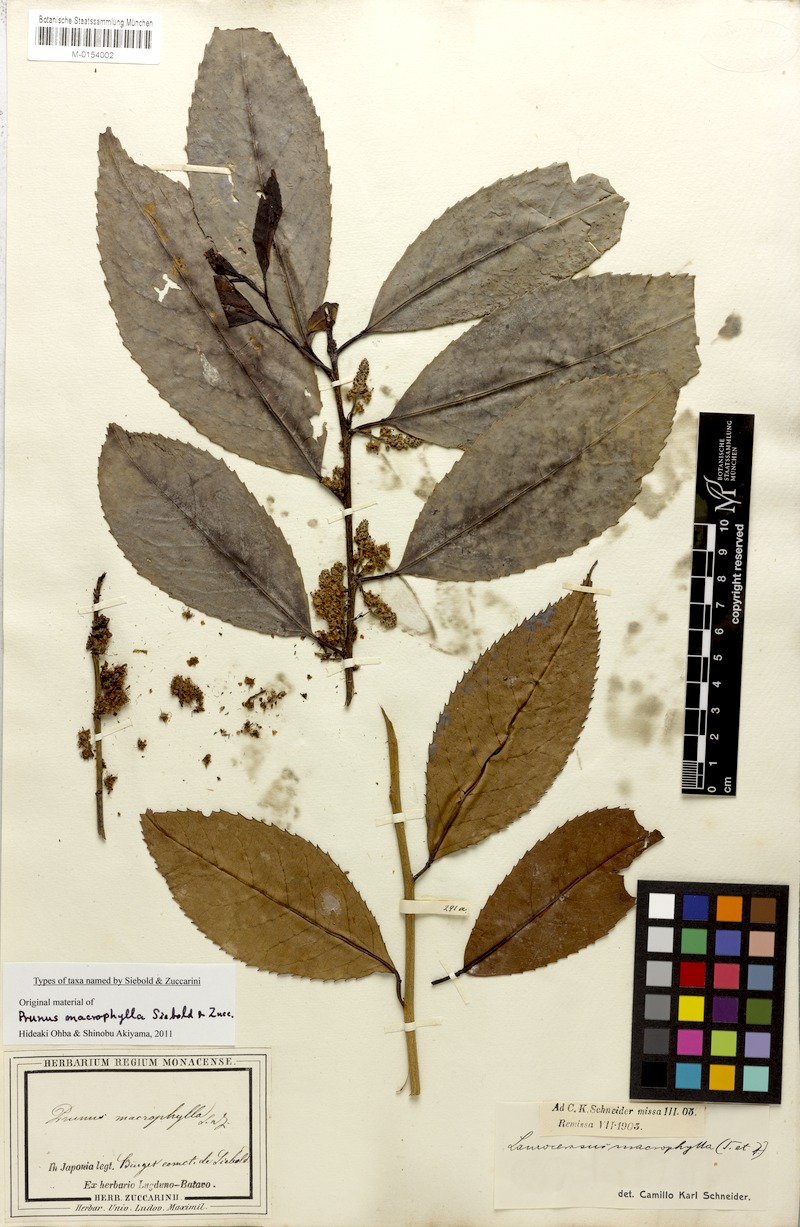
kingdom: Plantae
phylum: Tracheophyta
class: Magnoliopsida
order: Rosales
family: Rosaceae
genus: Prunus
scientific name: Prunus zippeliana
